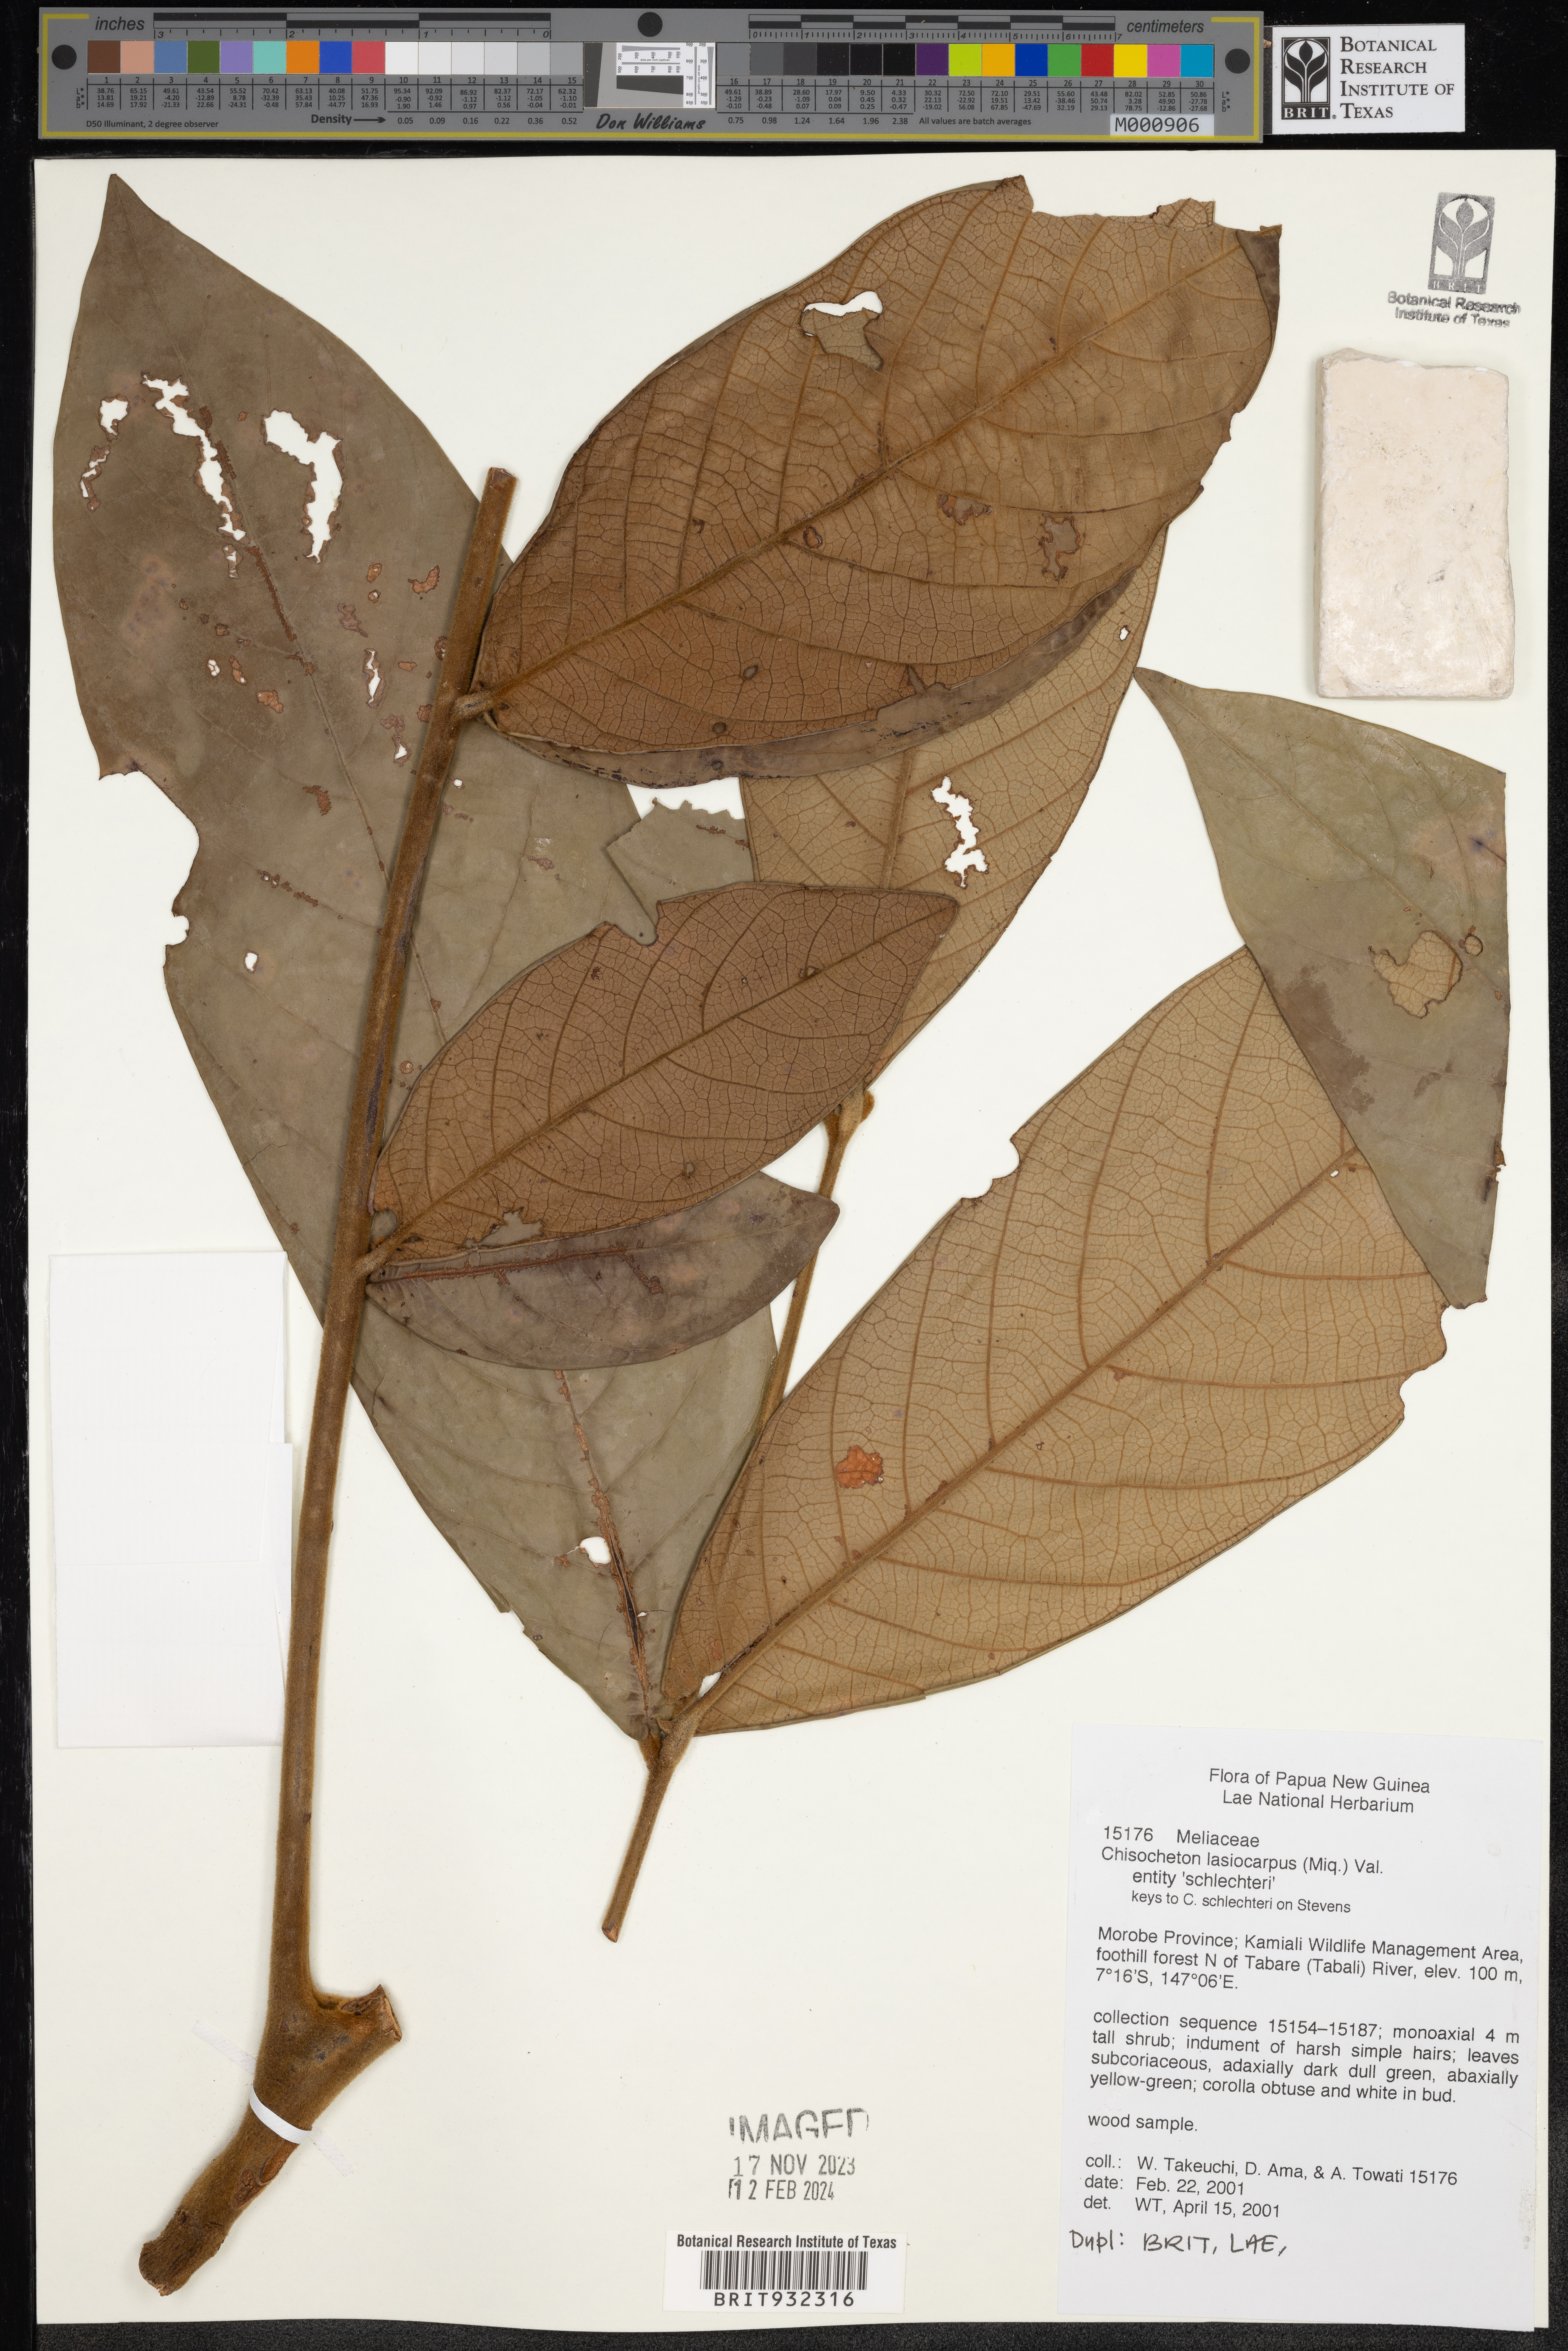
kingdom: Plantae
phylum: Tracheophyta
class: Magnoliopsida
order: Sapindales
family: Meliaceae
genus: Chisocheton
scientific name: Chisocheton
